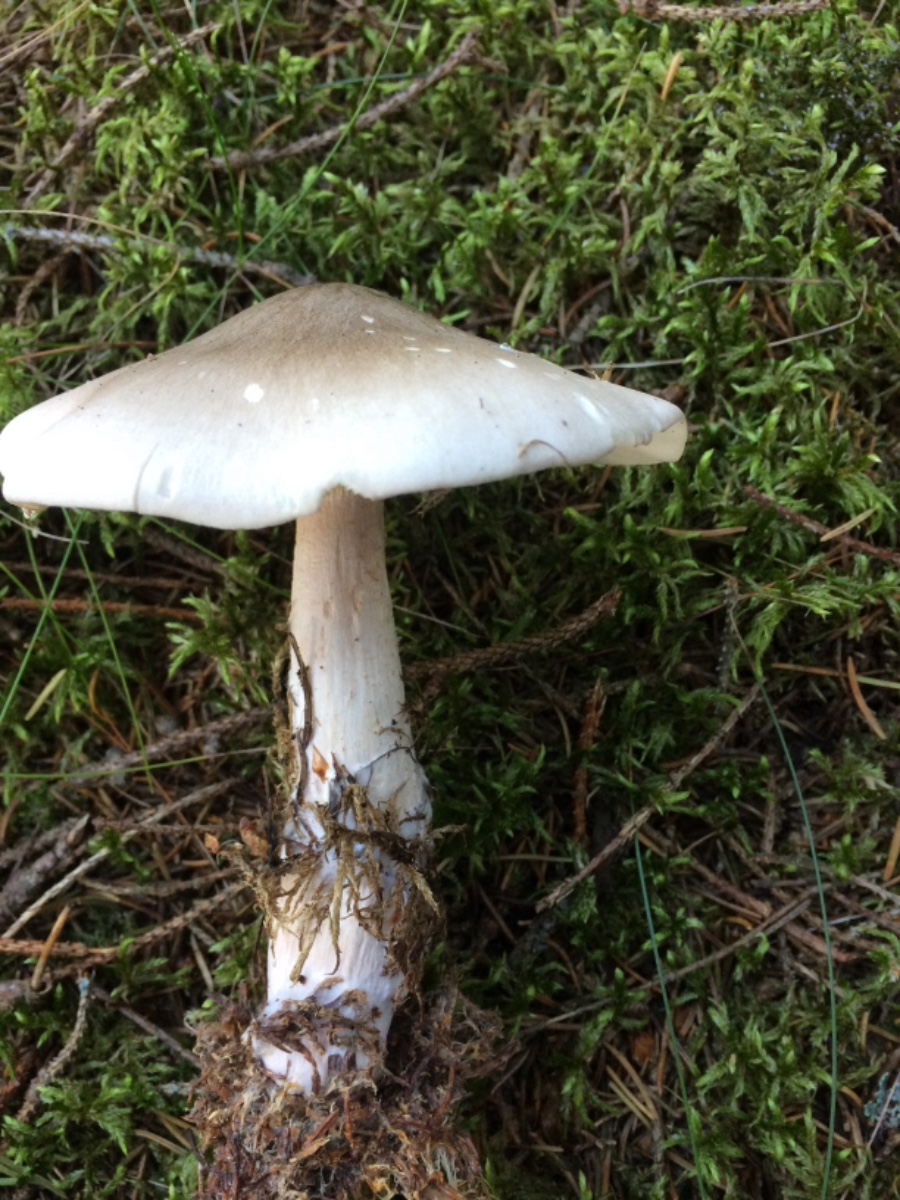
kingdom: Fungi
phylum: Basidiomycota
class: Agaricomycetes
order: Agaricales
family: Tricholomataceae
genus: Clitocybe
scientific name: Clitocybe nebularis
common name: tåge-tragthat
